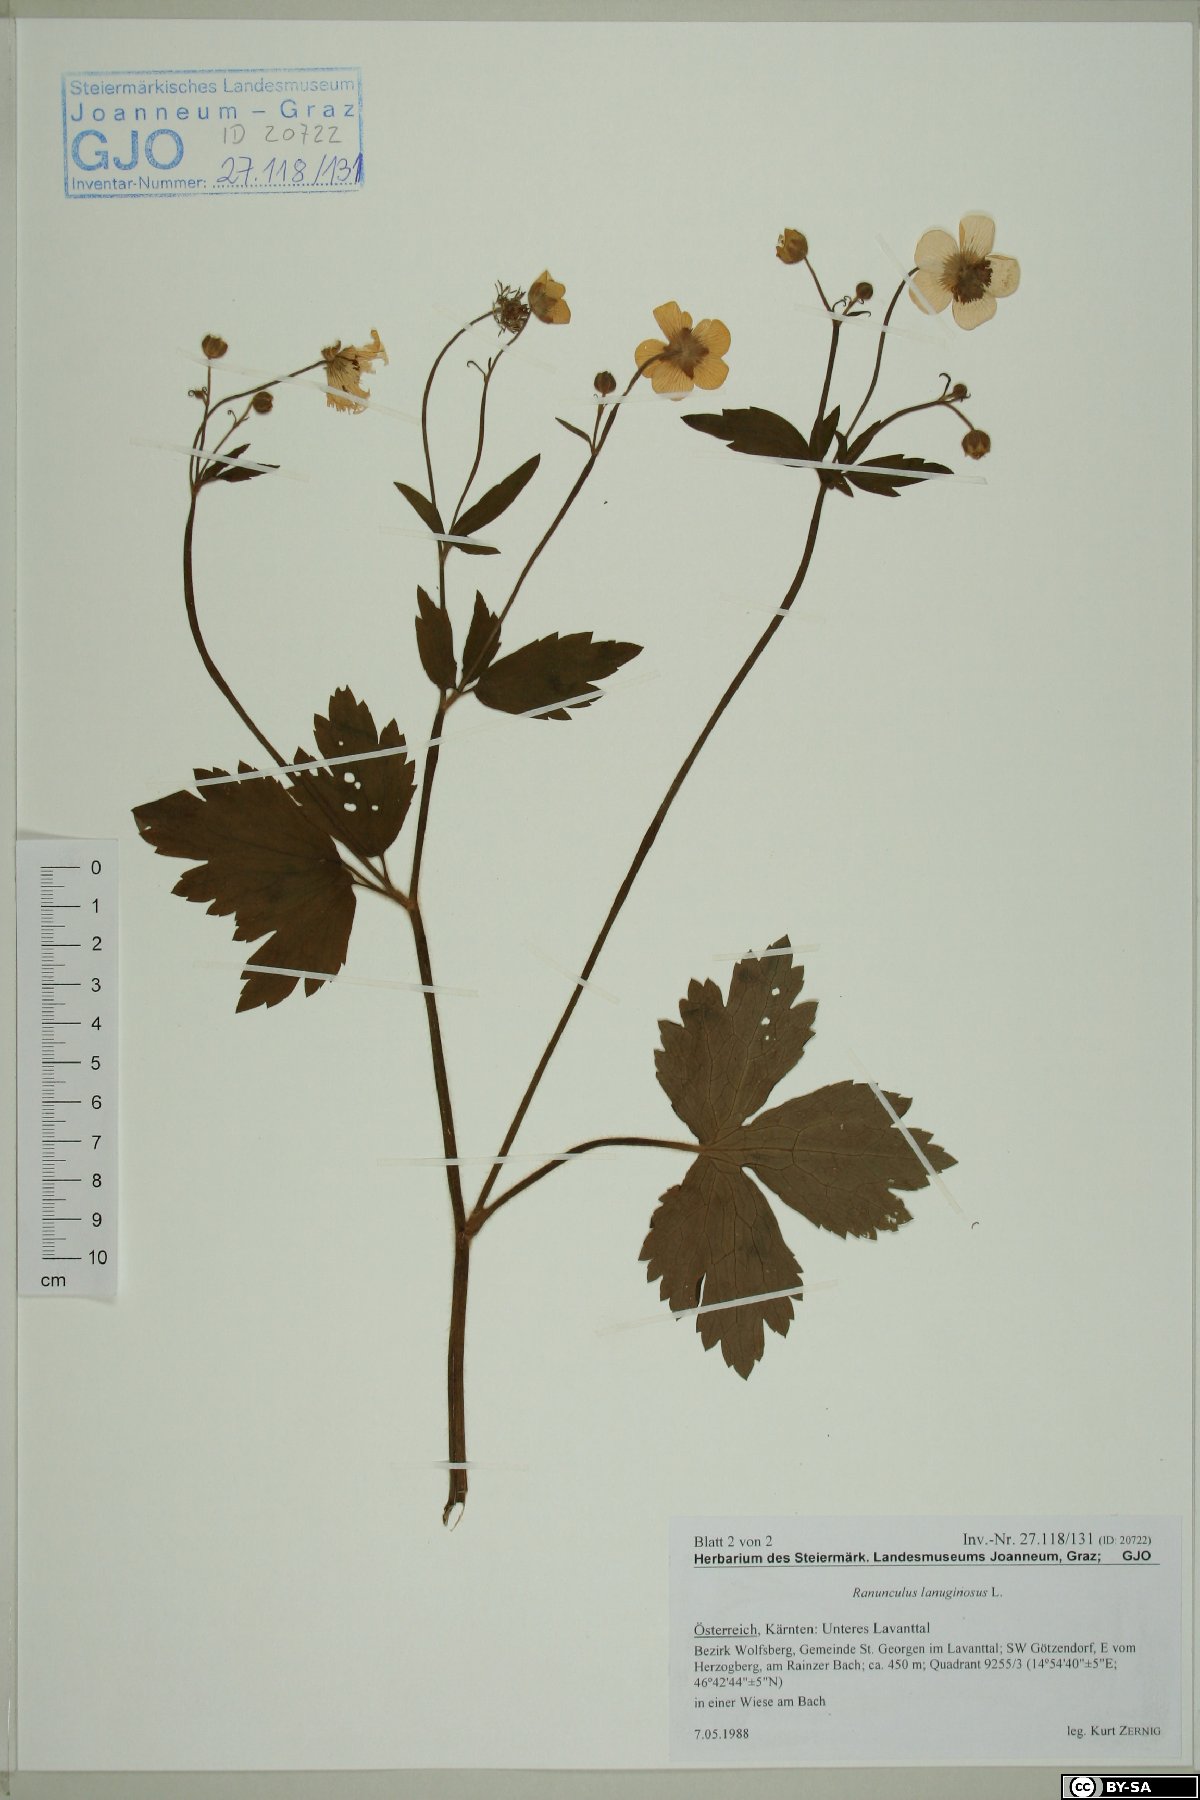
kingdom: Plantae
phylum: Tracheophyta
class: Magnoliopsida
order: Ranunculales
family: Ranunculaceae
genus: Ranunculus
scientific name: Ranunculus lanuginosus
